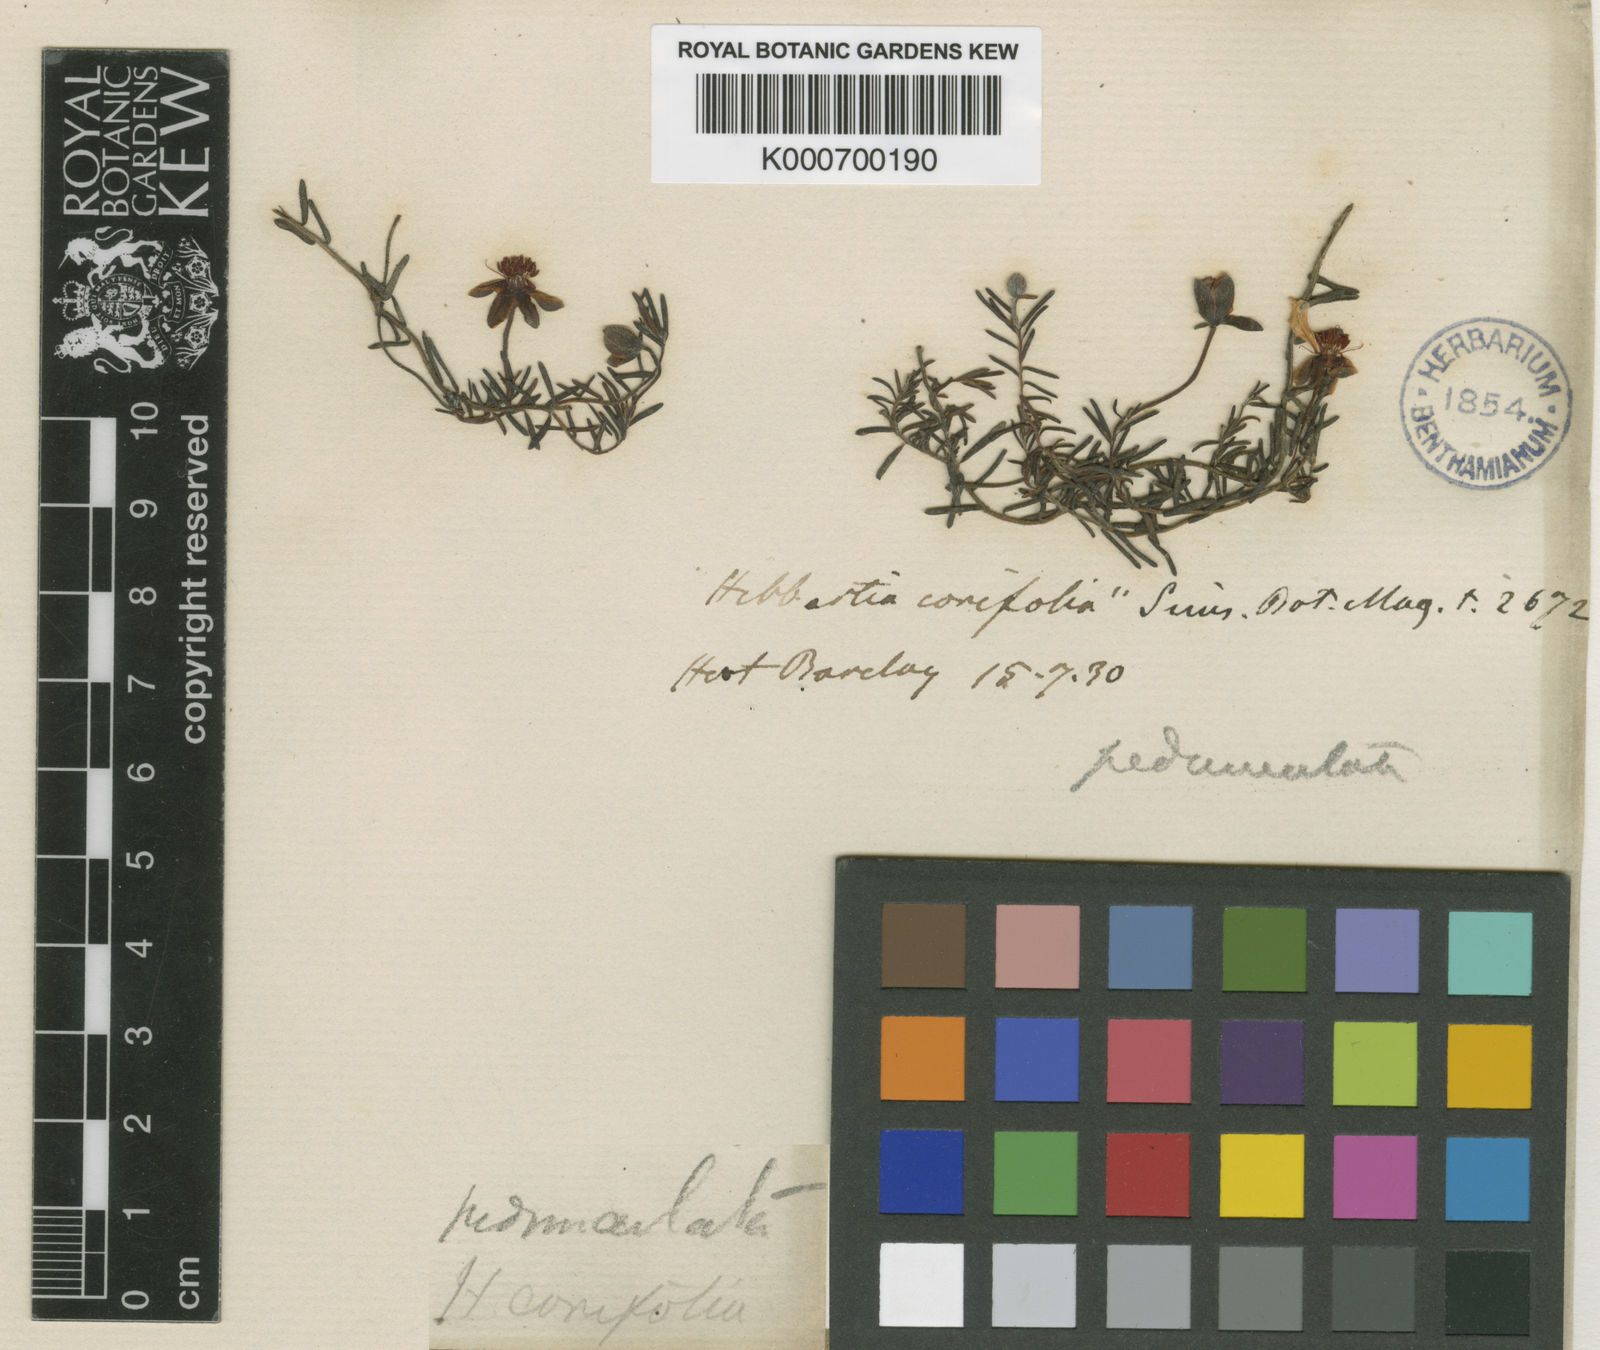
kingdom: Plantae
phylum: Tracheophyta
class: Magnoliopsida
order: Dilleniales
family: Dilleniaceae
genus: Hibbertia
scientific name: Hibbertia pedunculata
